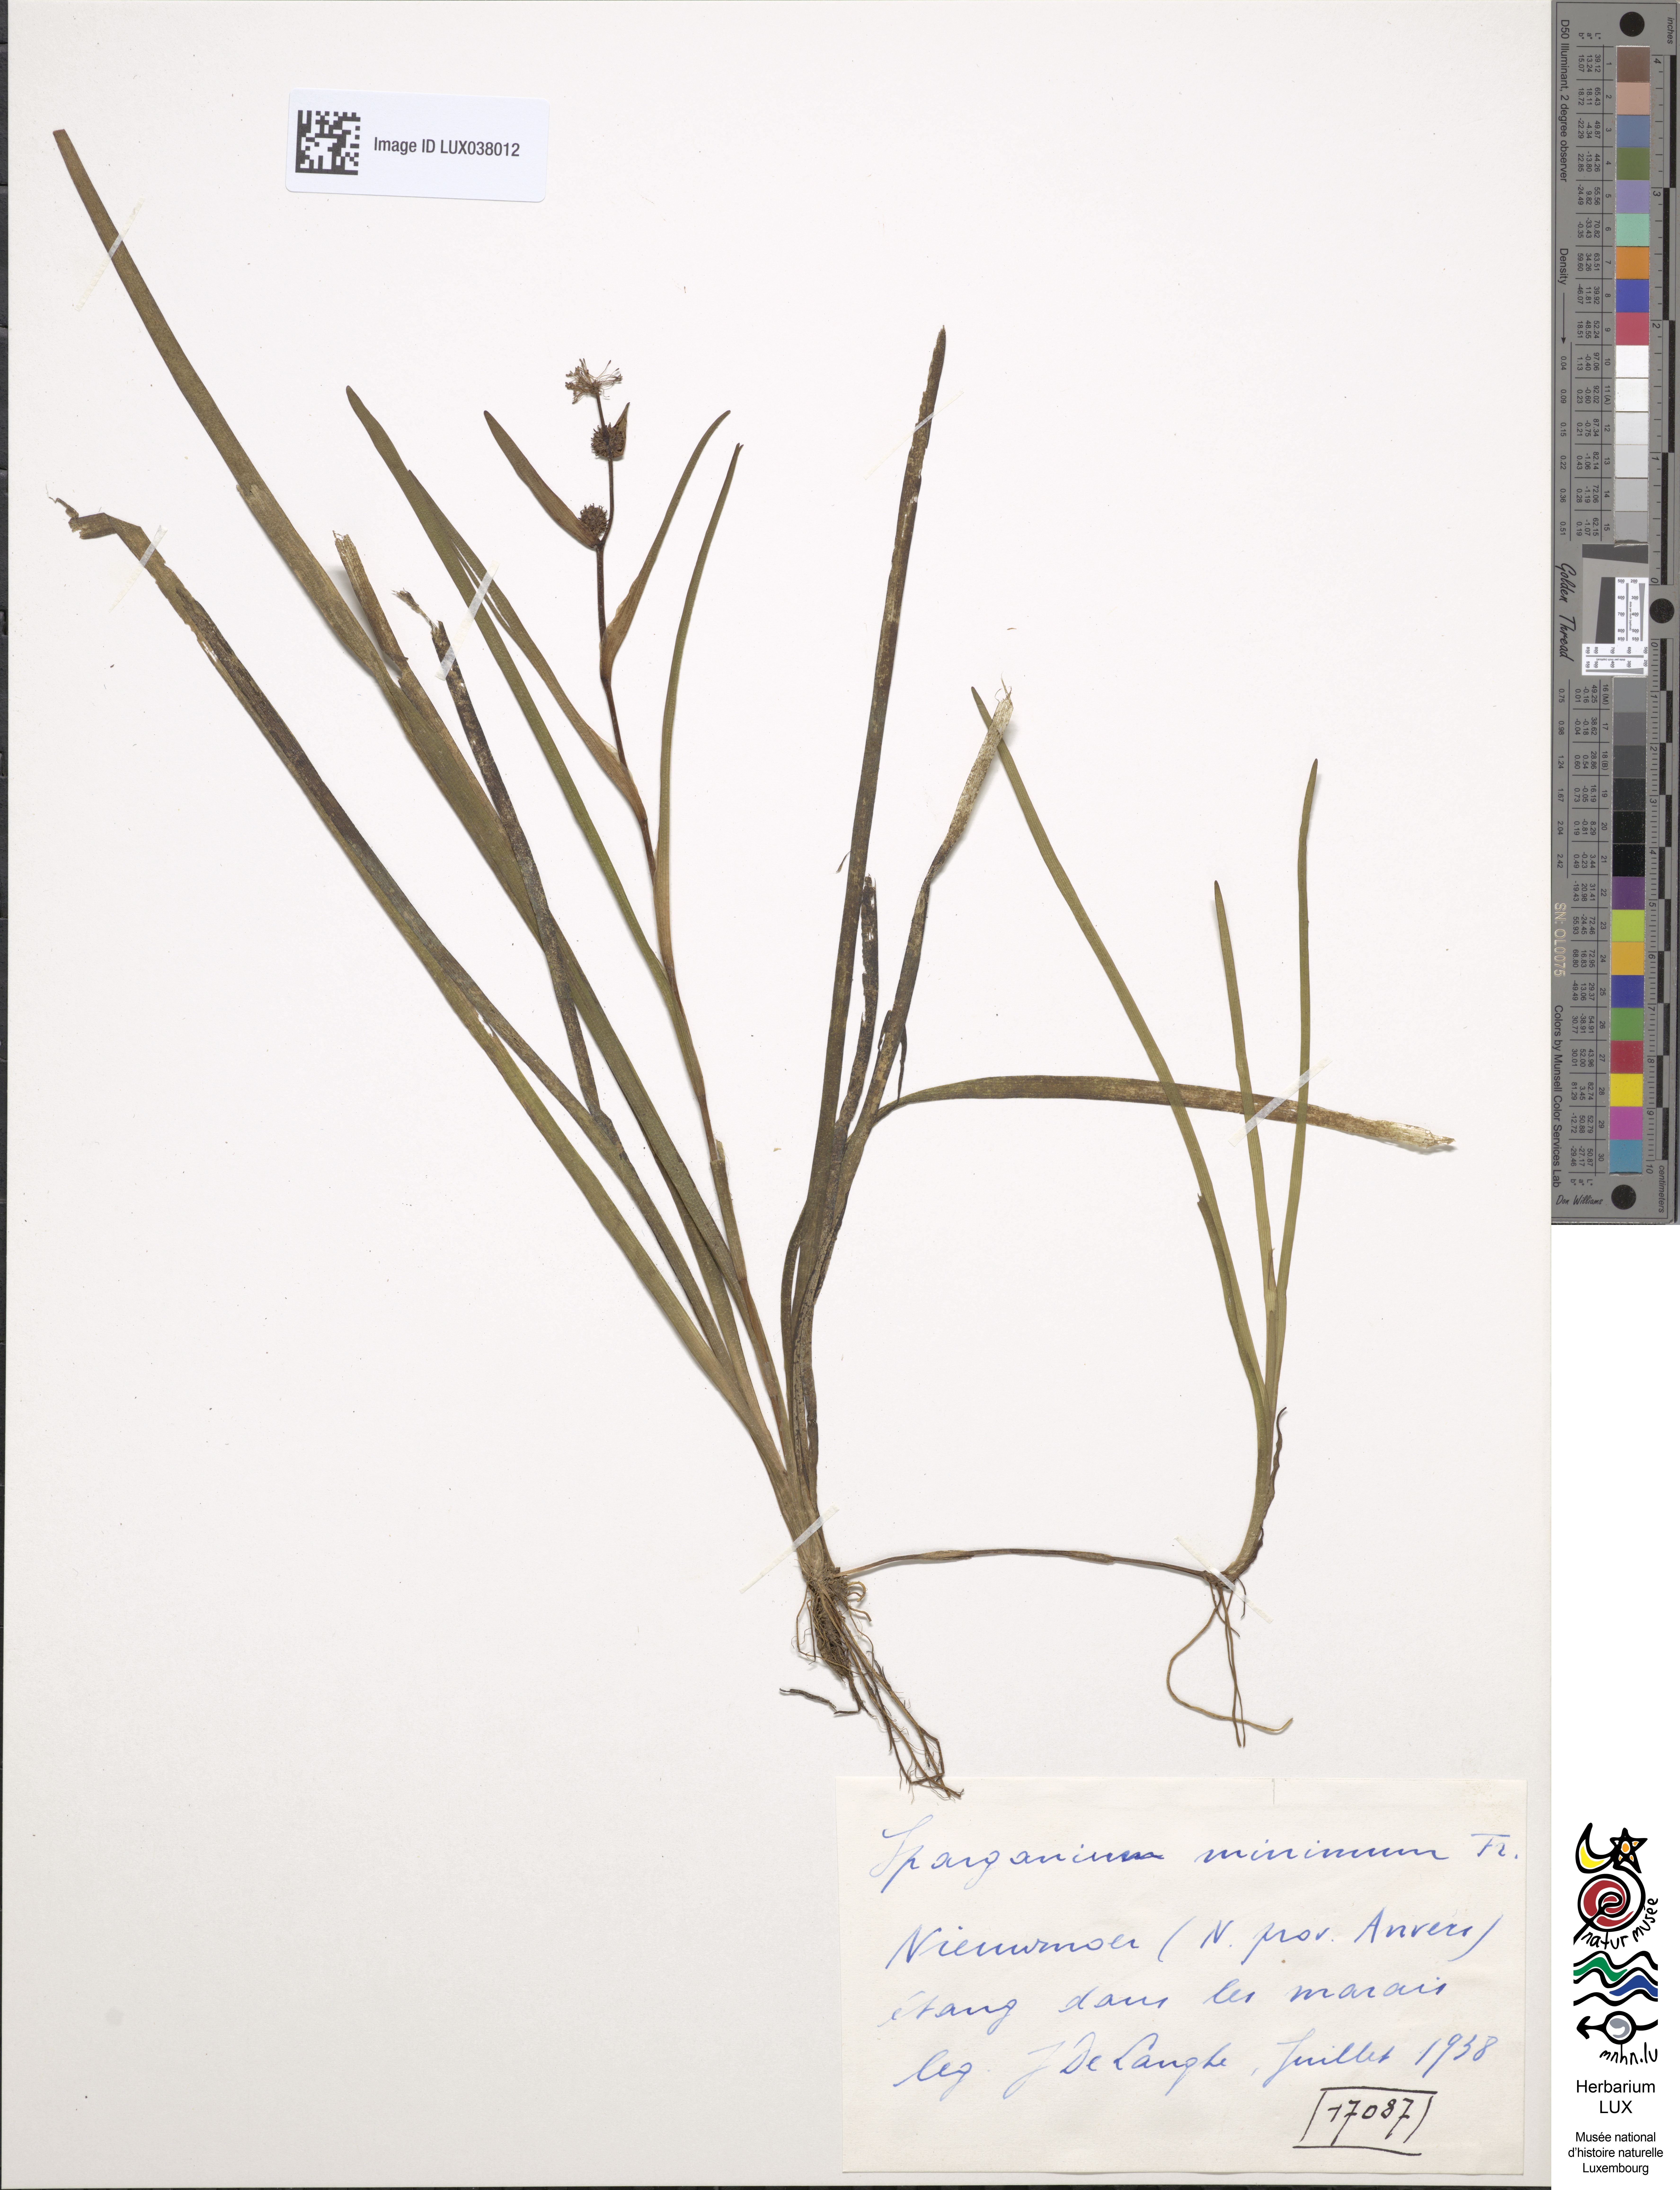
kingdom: Plantae
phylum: Tracheophyta
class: Liliopsida
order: Poales
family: Typhaceae
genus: Sparganium
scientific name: Sparganium natans
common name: Least bur-reed
